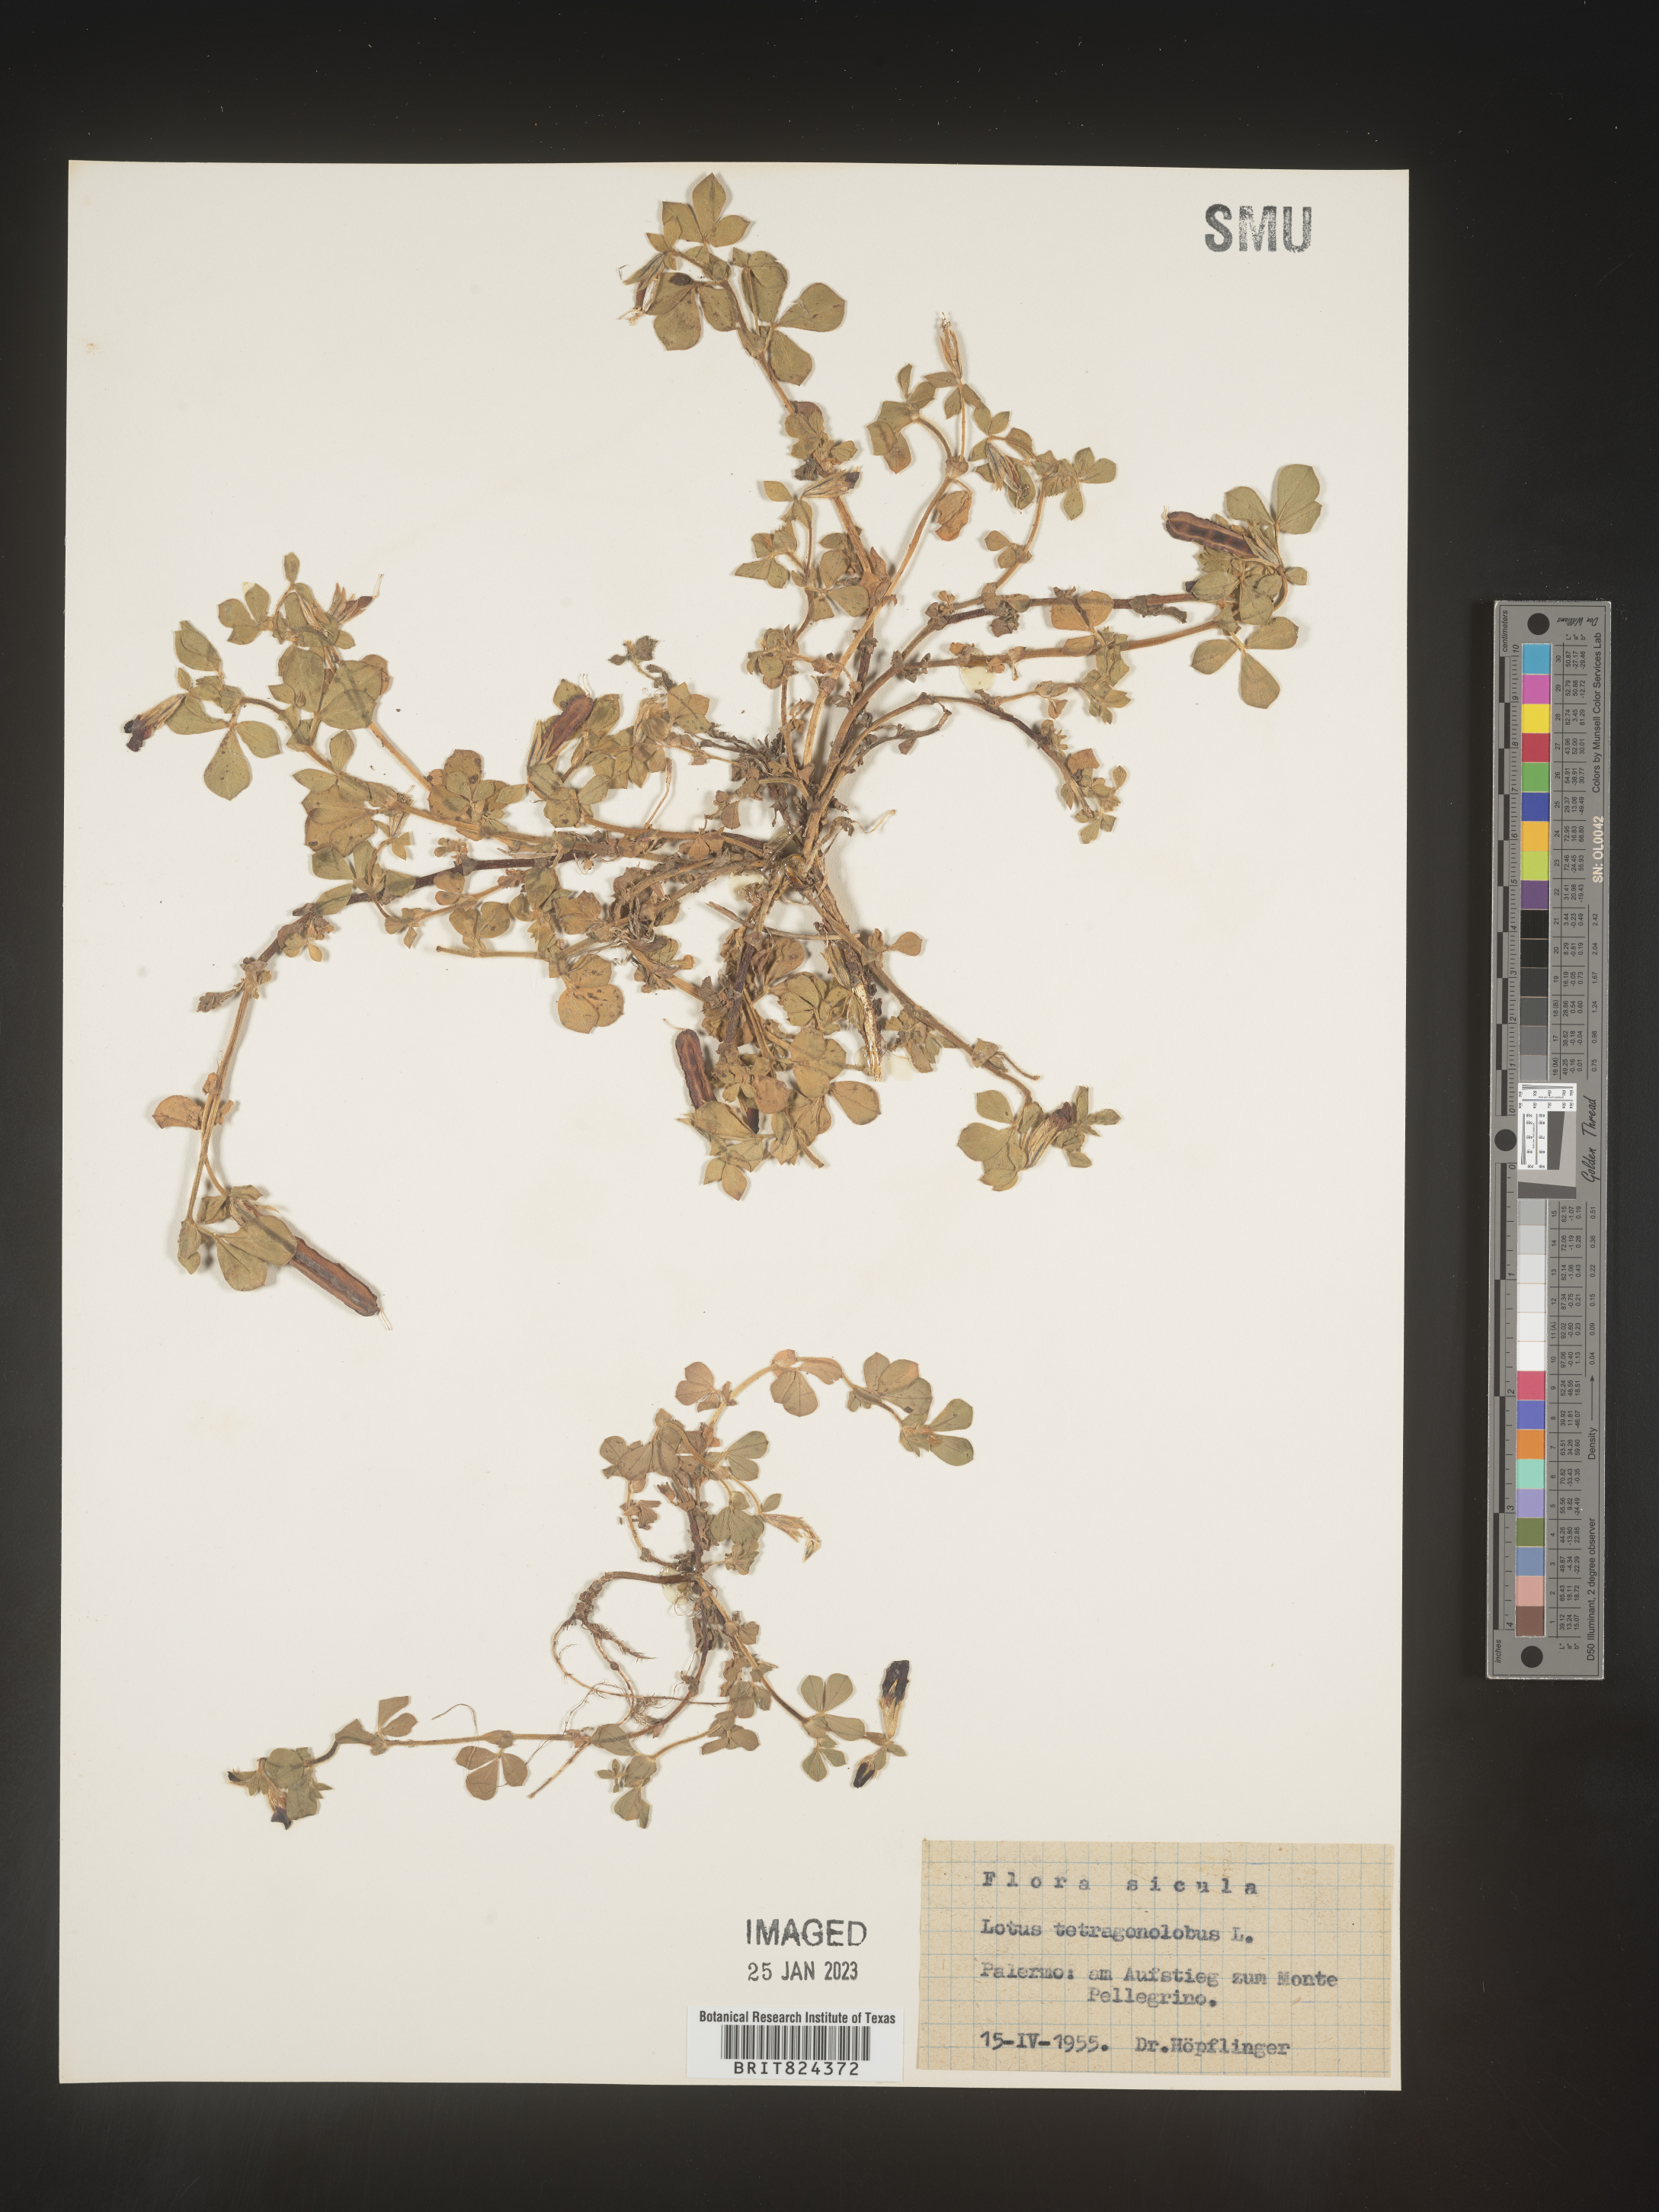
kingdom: Plantae
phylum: Tracheophyta
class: Magnoliopsida
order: Fabales
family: Fabaceae
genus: Lotus
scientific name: Lotus
